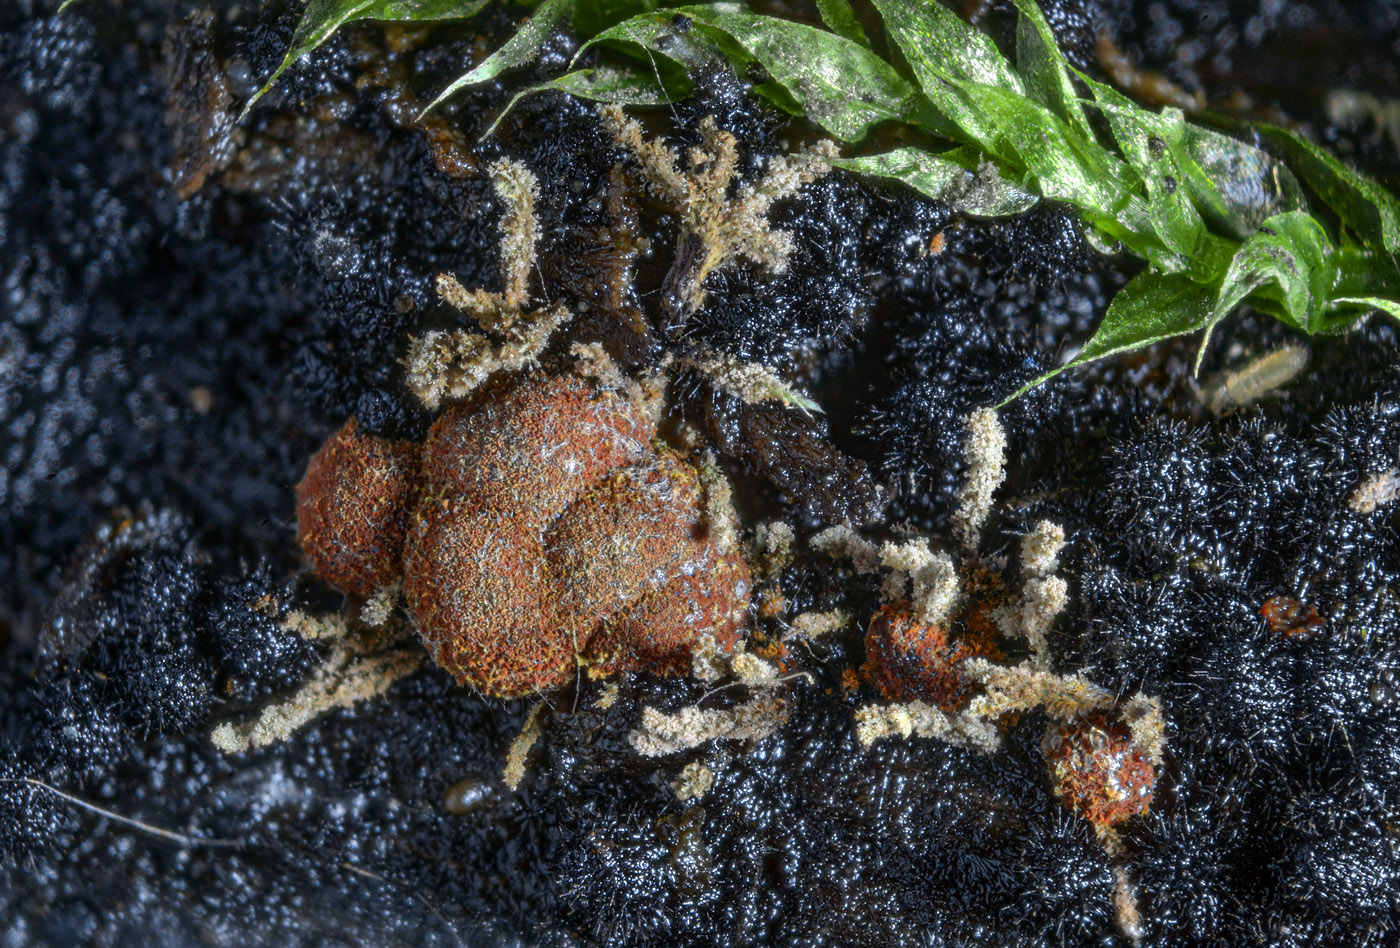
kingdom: Fungi
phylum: Ascomycota
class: Sordariomycetes
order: Xylariales
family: Hypoxylaceae
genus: Hypoxylon
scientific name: Hypoxylon howeanum
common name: halvkugleformet kulbær
